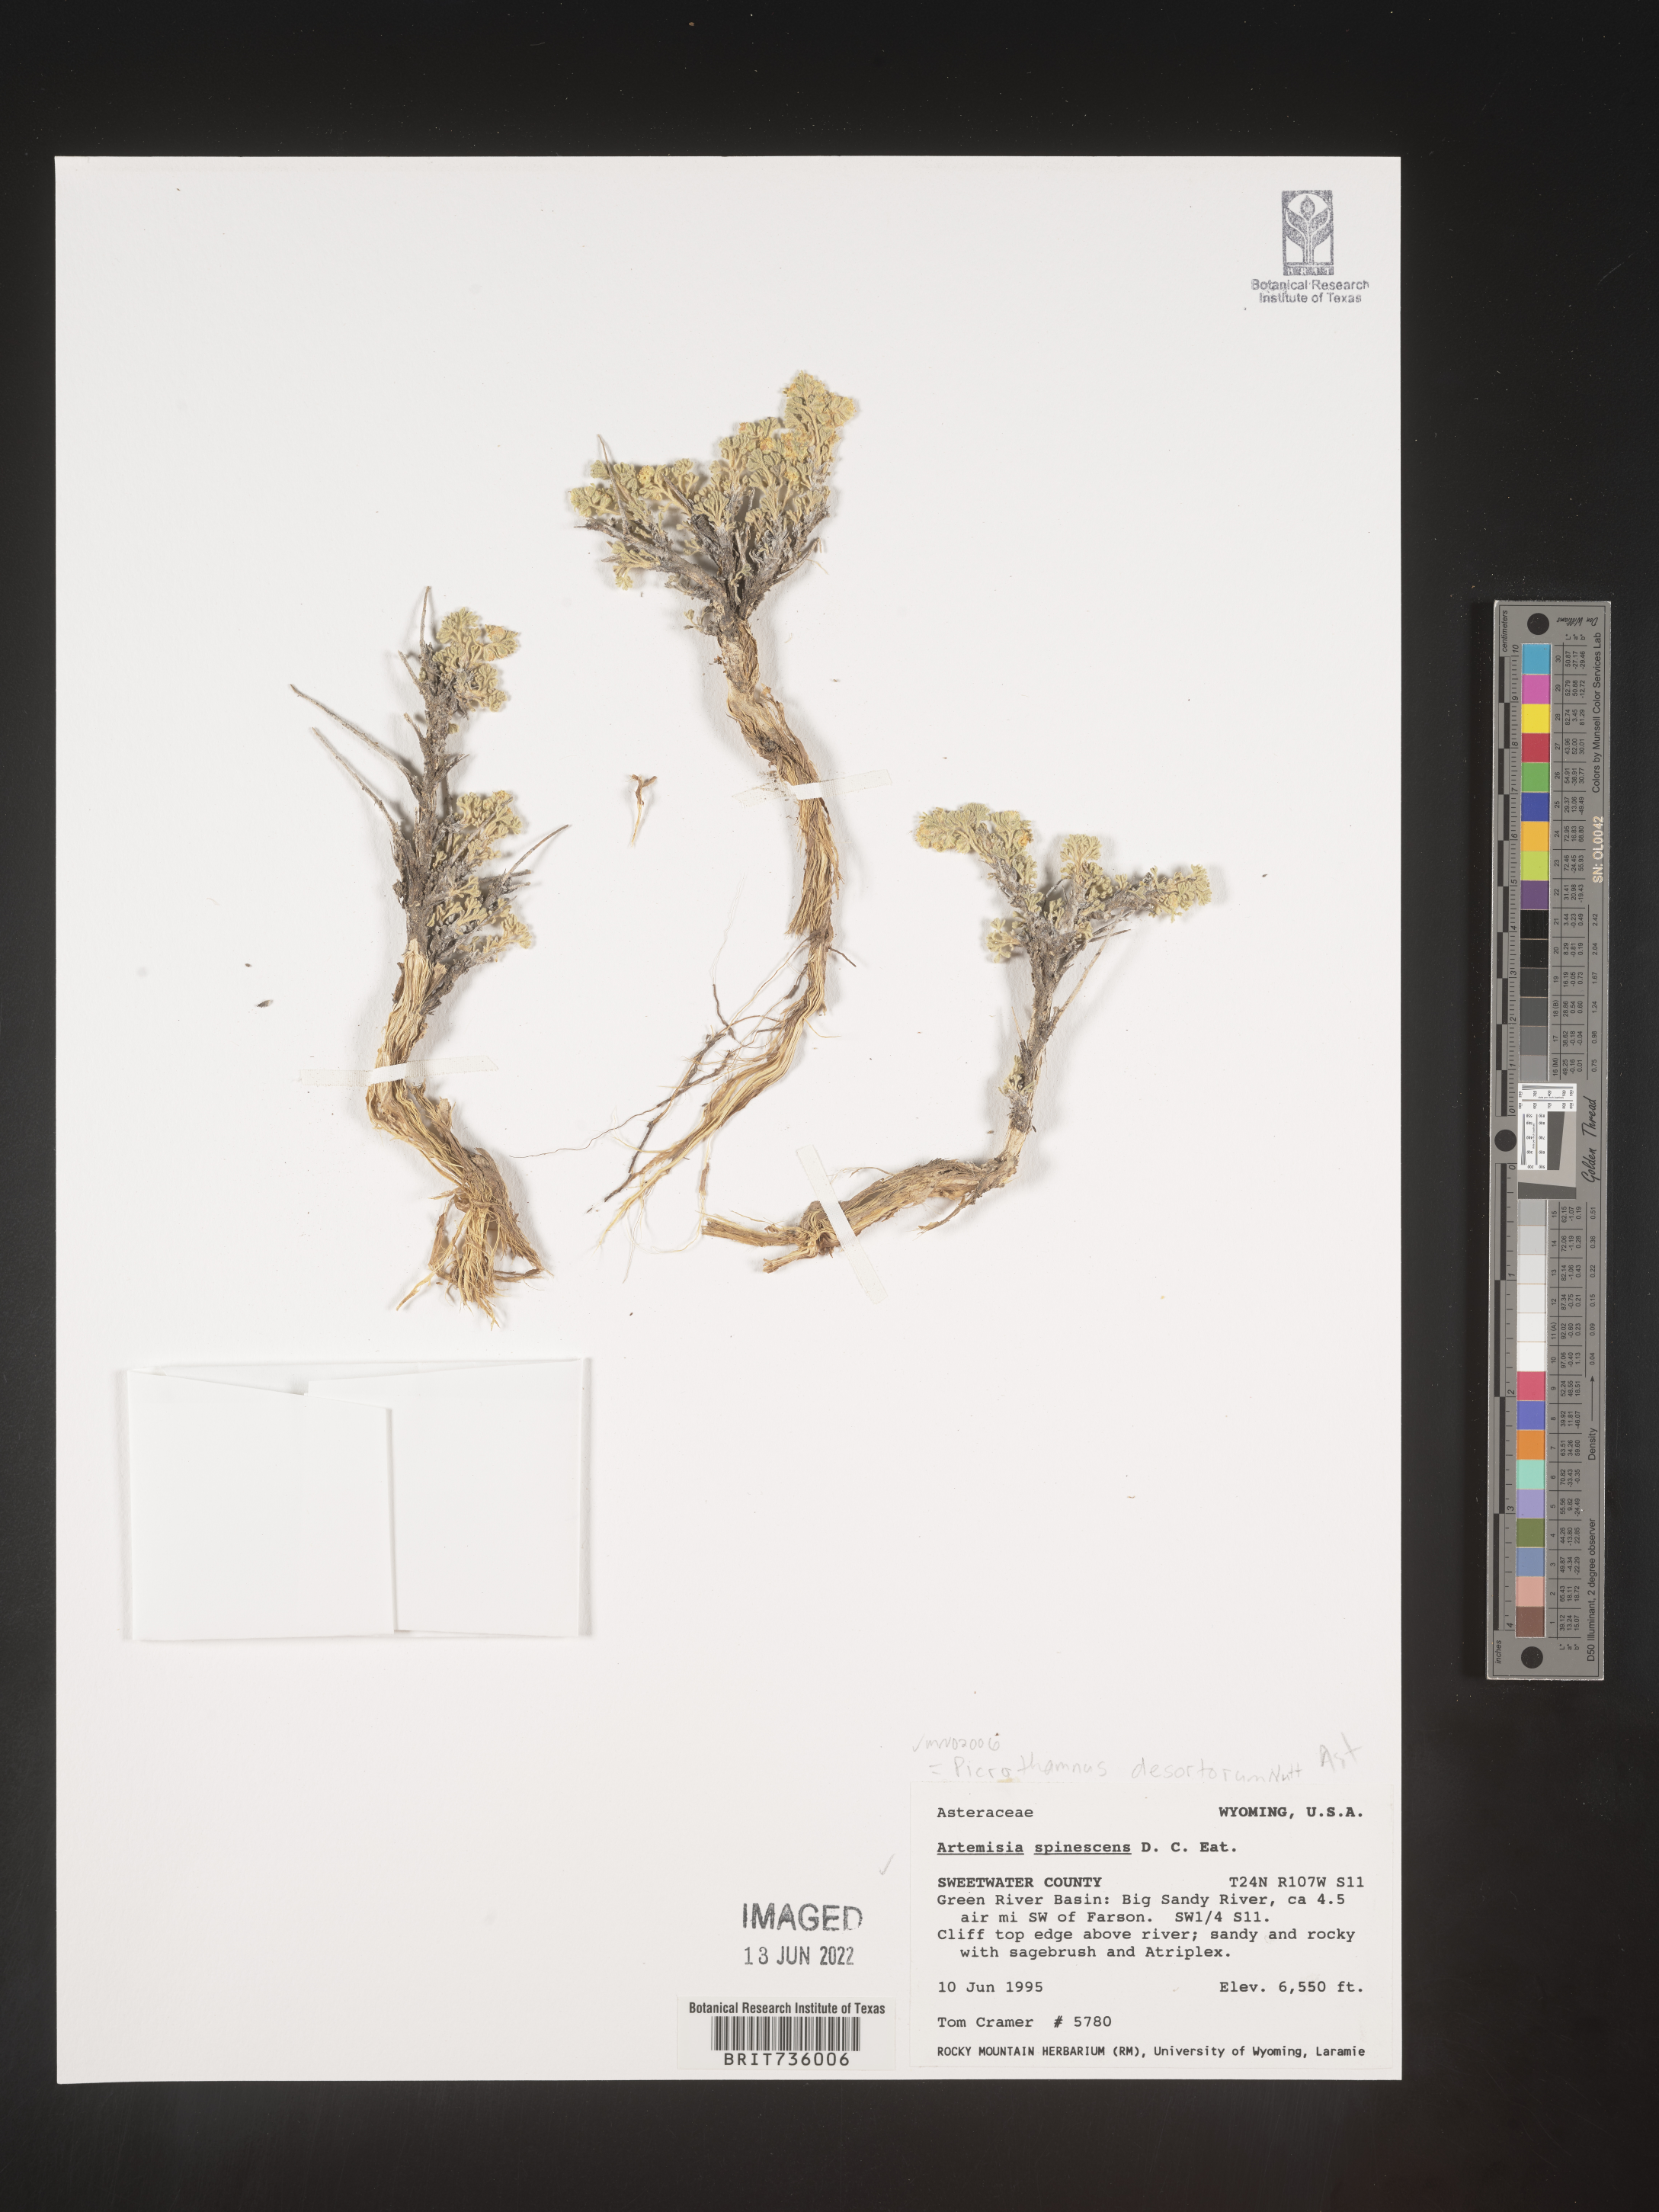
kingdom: Plantae
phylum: Tracheophyta
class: Magnoliopsida
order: Asterales
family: Asteraceae
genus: Artemisia
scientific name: Artemisia spinescens
